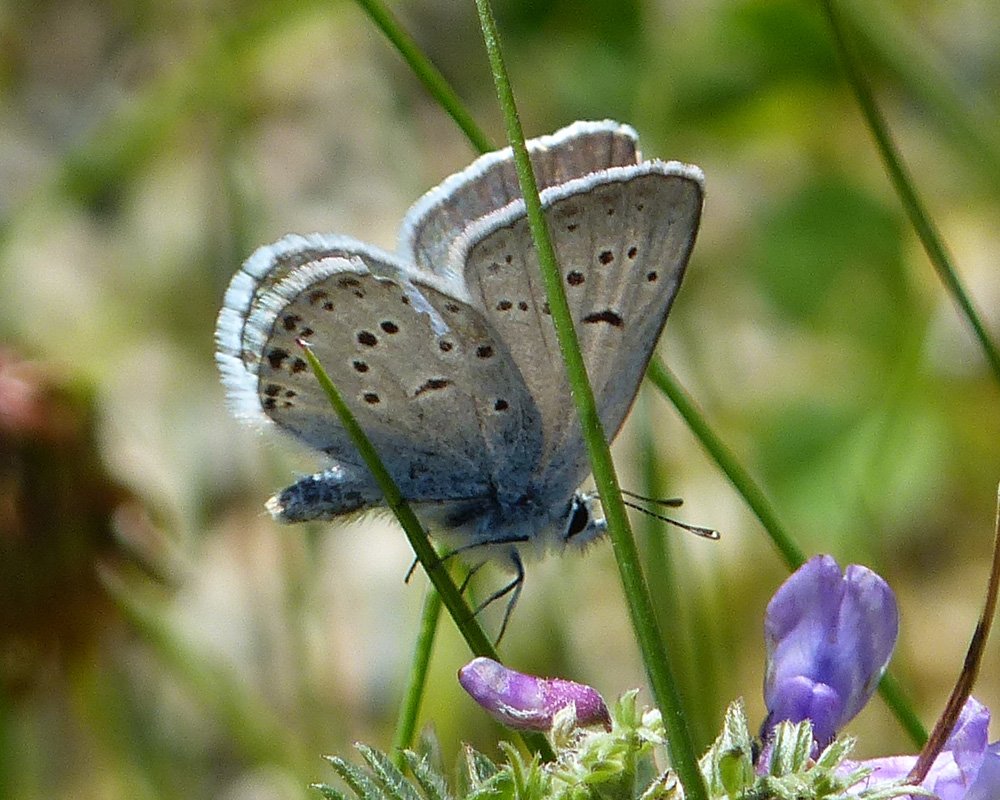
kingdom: Animalia
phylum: Arthropoda
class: Insecta
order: Lepidoptera
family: Lycaenidae
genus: Plebejus
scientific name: Plebejus saepiolus
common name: Greenish Blue
